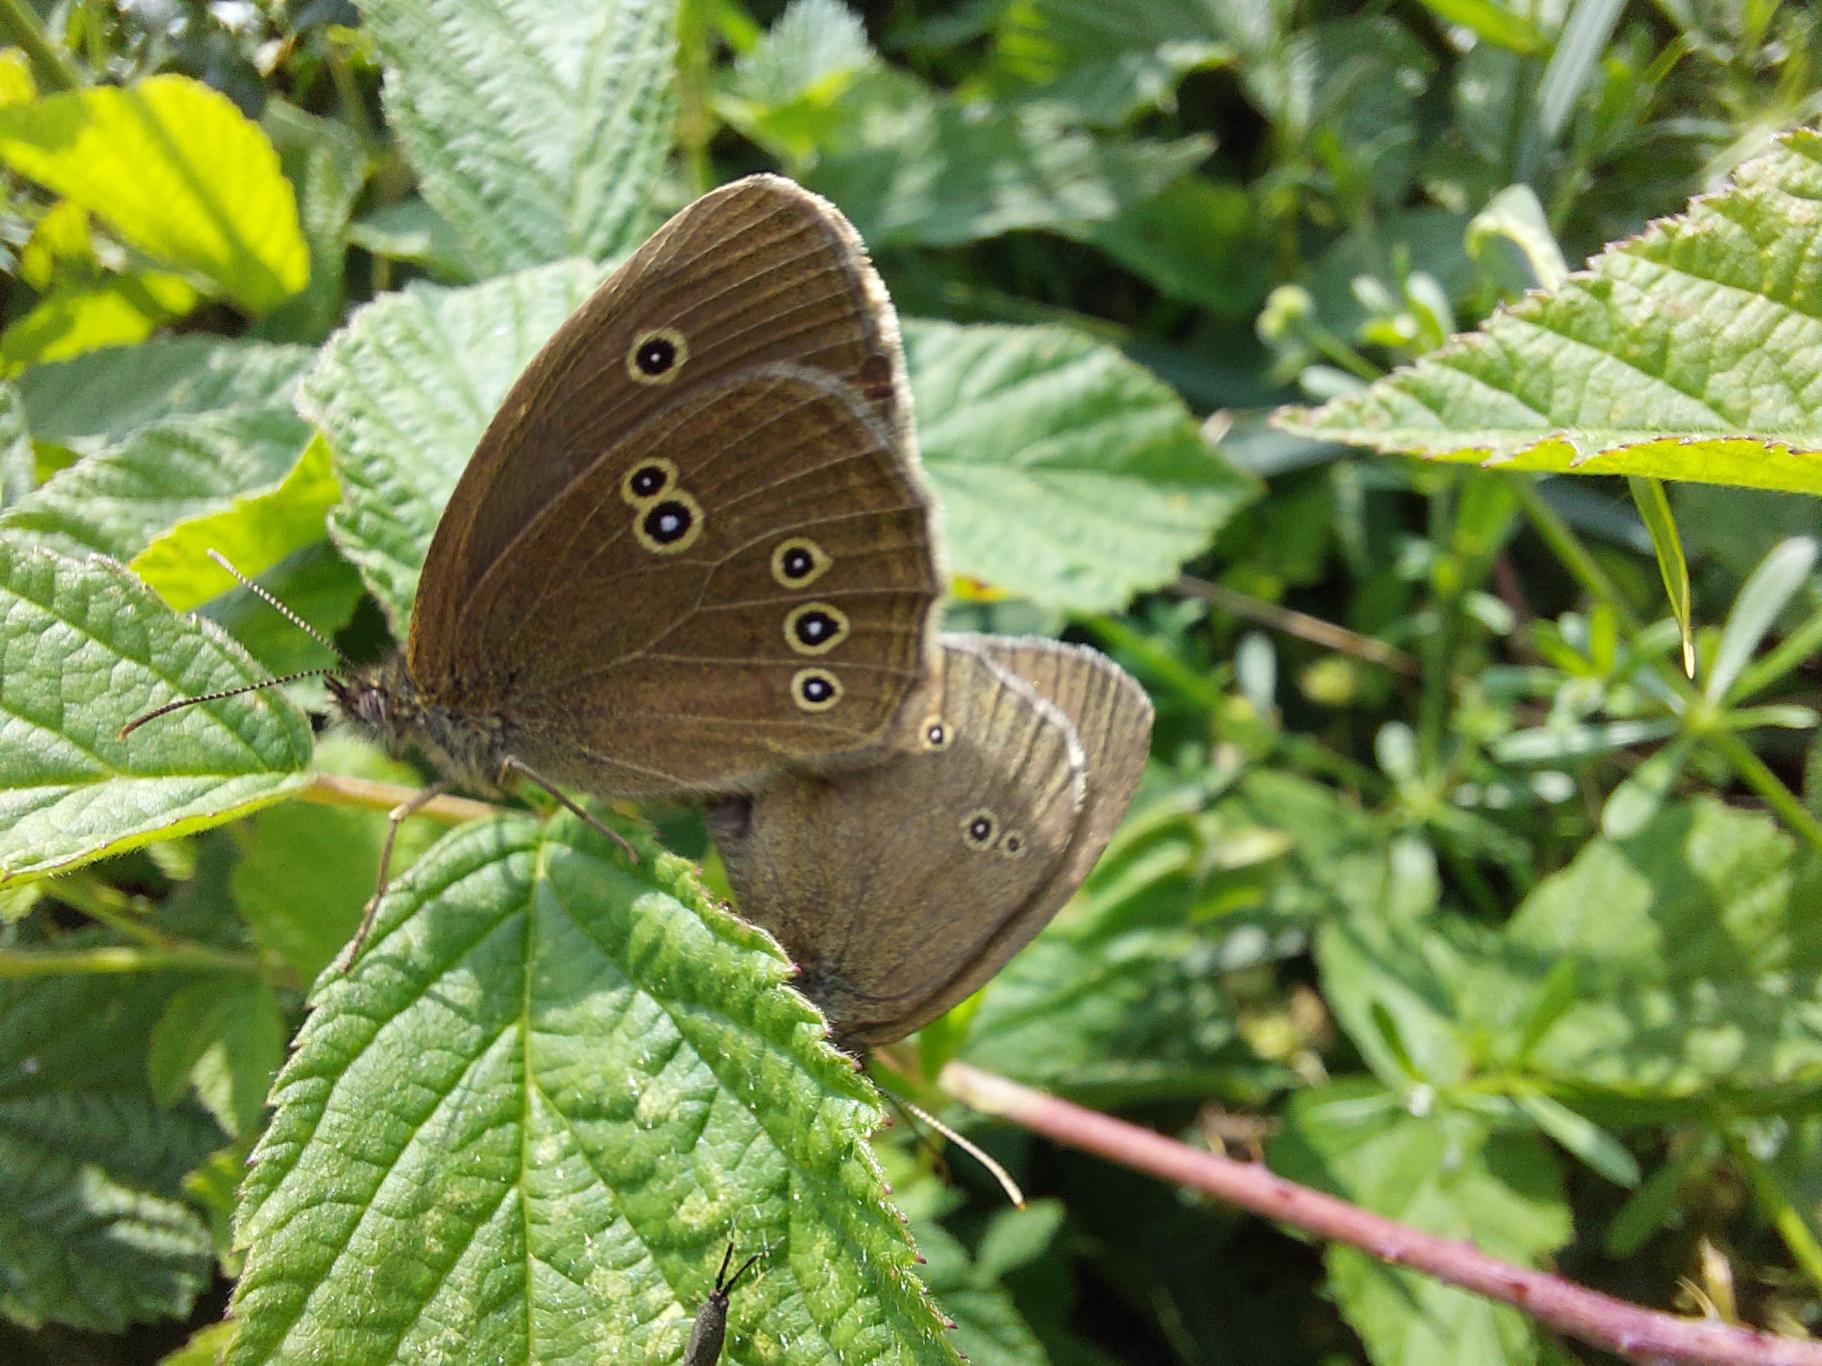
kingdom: Animalia
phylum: Arthropoda
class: Insecta
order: Lepidoptera
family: Nymphalidae
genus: Aphantopus
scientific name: Aphantopus hyperantus
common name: Engrandøje
